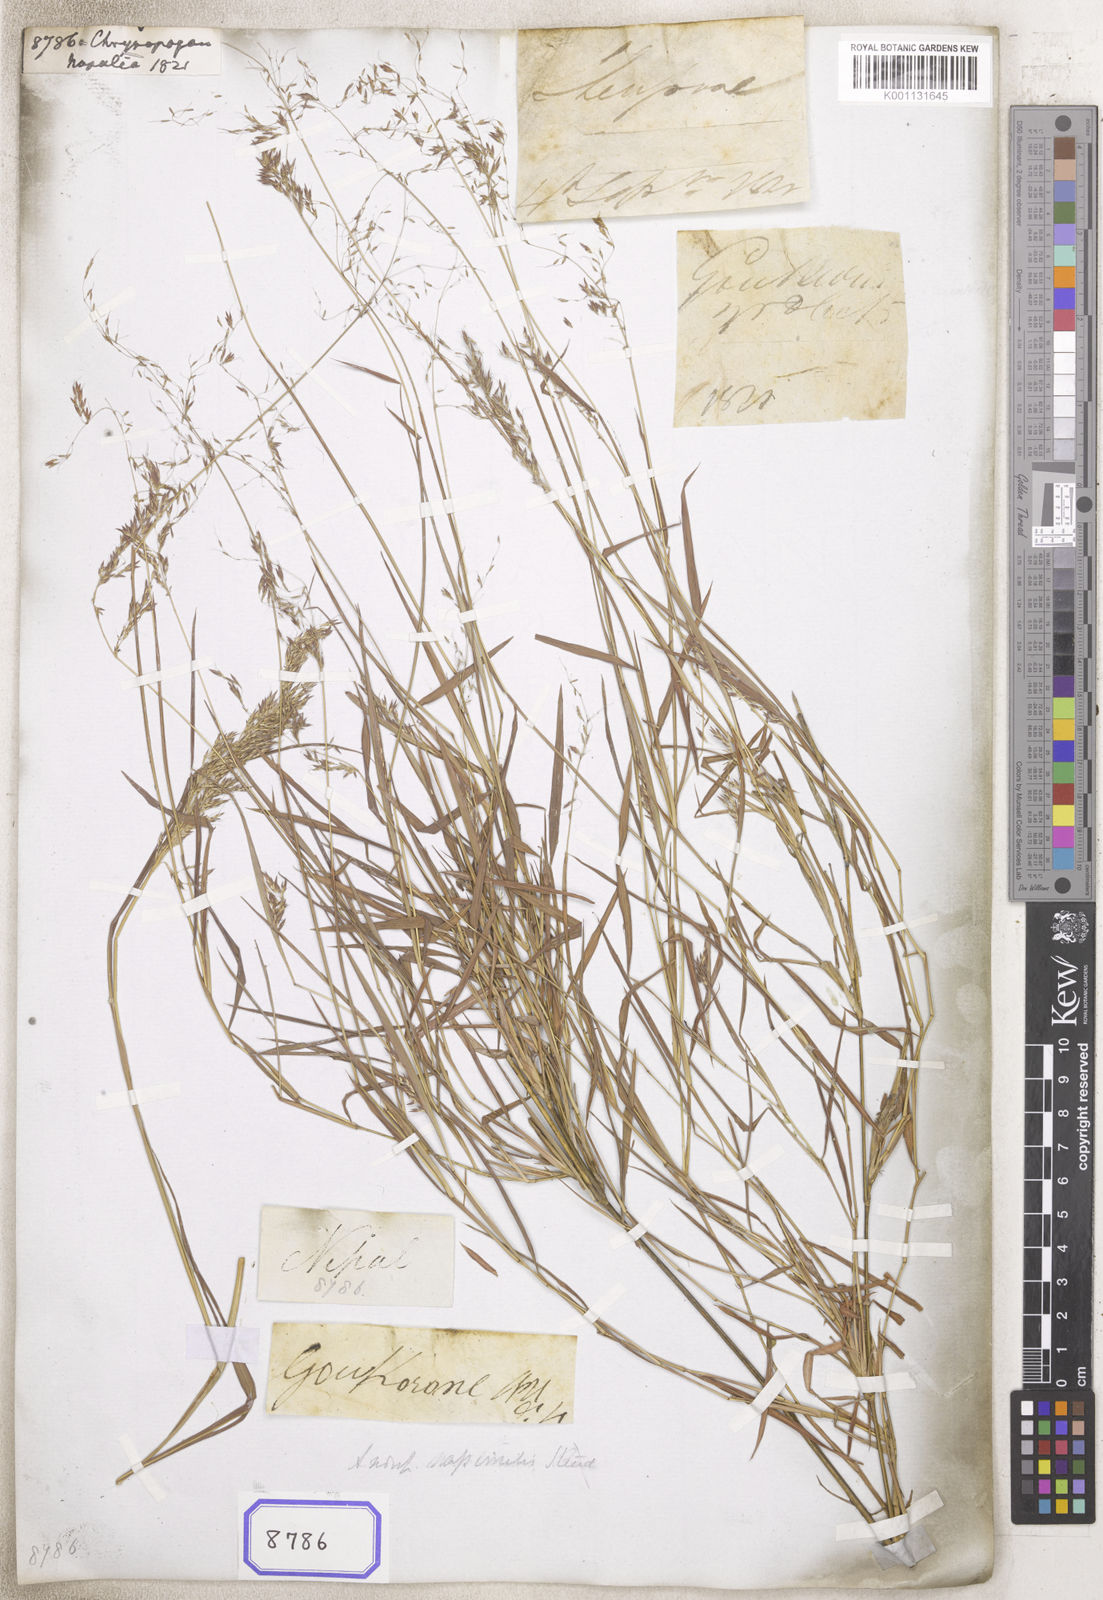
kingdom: Plantae
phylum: Tracheophyta
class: Liliopsida
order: Poales
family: Poaceae
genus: Chrysopogon
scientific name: Chrysopogon
